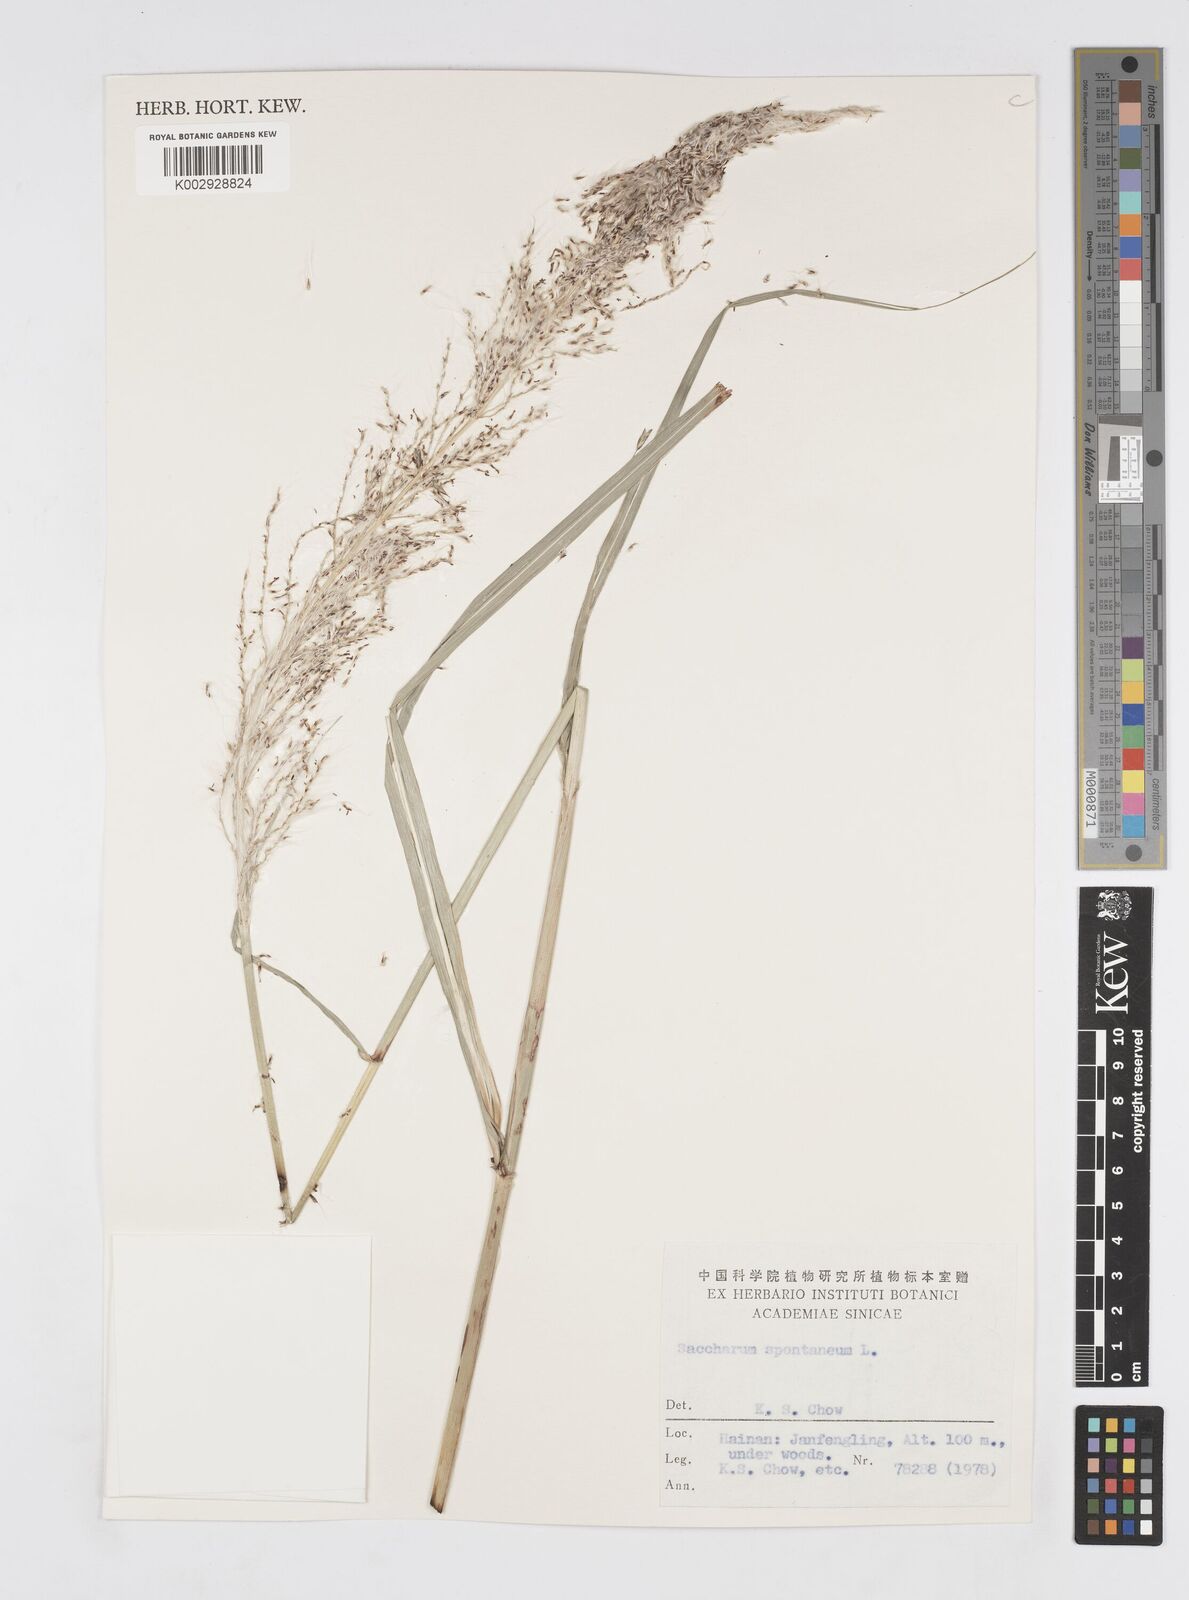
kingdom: Plantae
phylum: Tracheophyta
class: Liliopsida
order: Poales
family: Poaceae
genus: Saccharum
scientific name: Saccharum spontaneum
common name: Wild sugarcane
